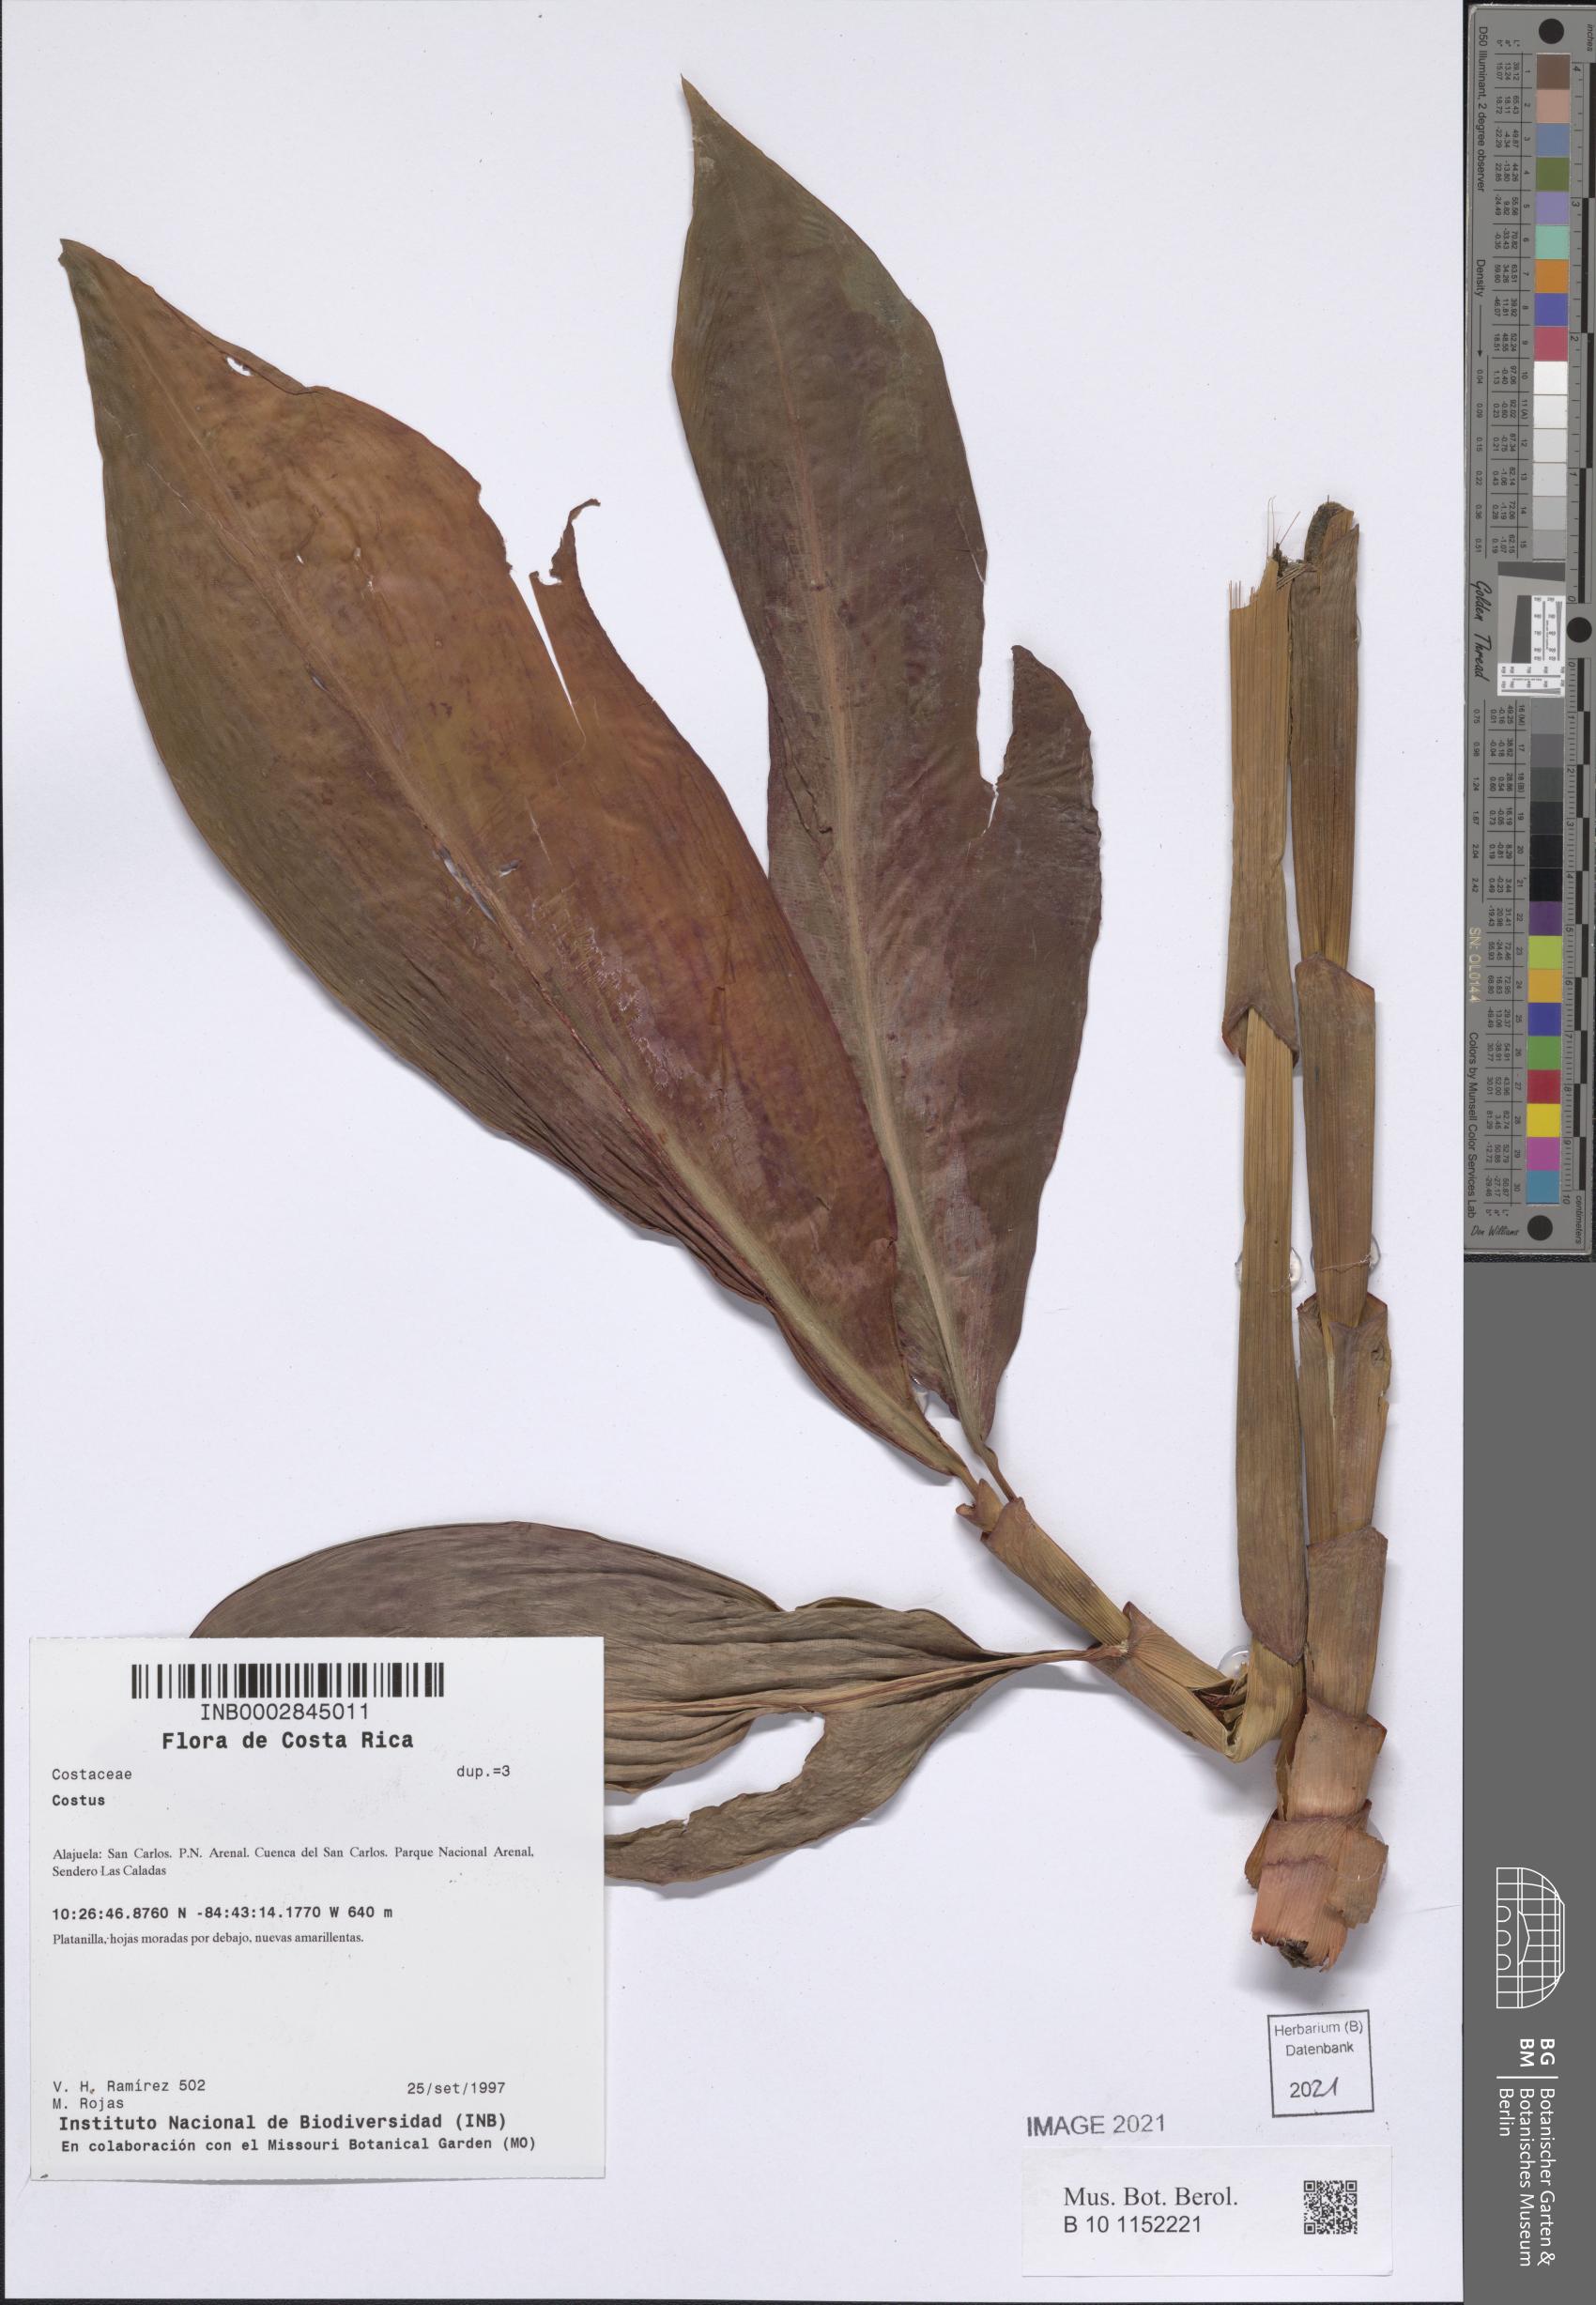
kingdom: Plantae
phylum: Tracheophyta
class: Liliopsida
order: Zingiberales
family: Costaceae
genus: Costus
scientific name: Costus
